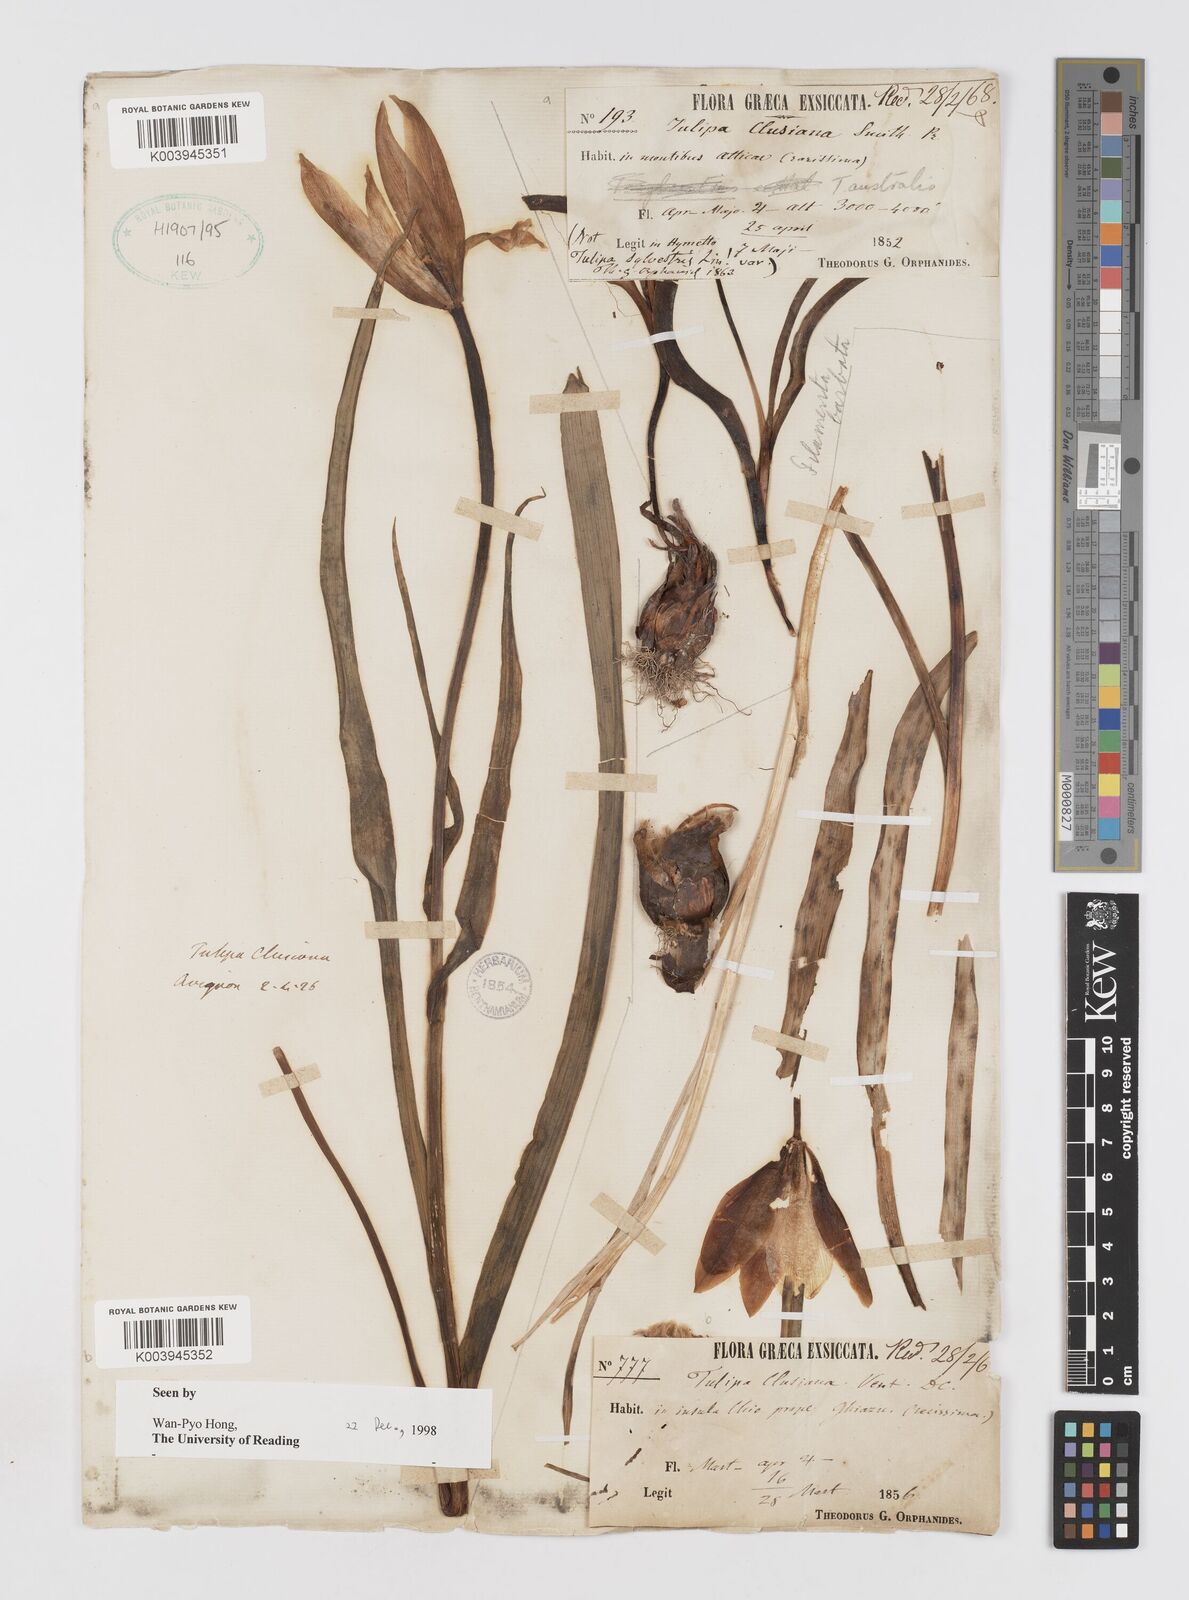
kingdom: Plantae
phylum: Tracheophyta
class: Liliopsida
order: Liliales
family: Liliaceae
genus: Tulipa
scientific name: Tulipa clusiana
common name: Lady tulip
